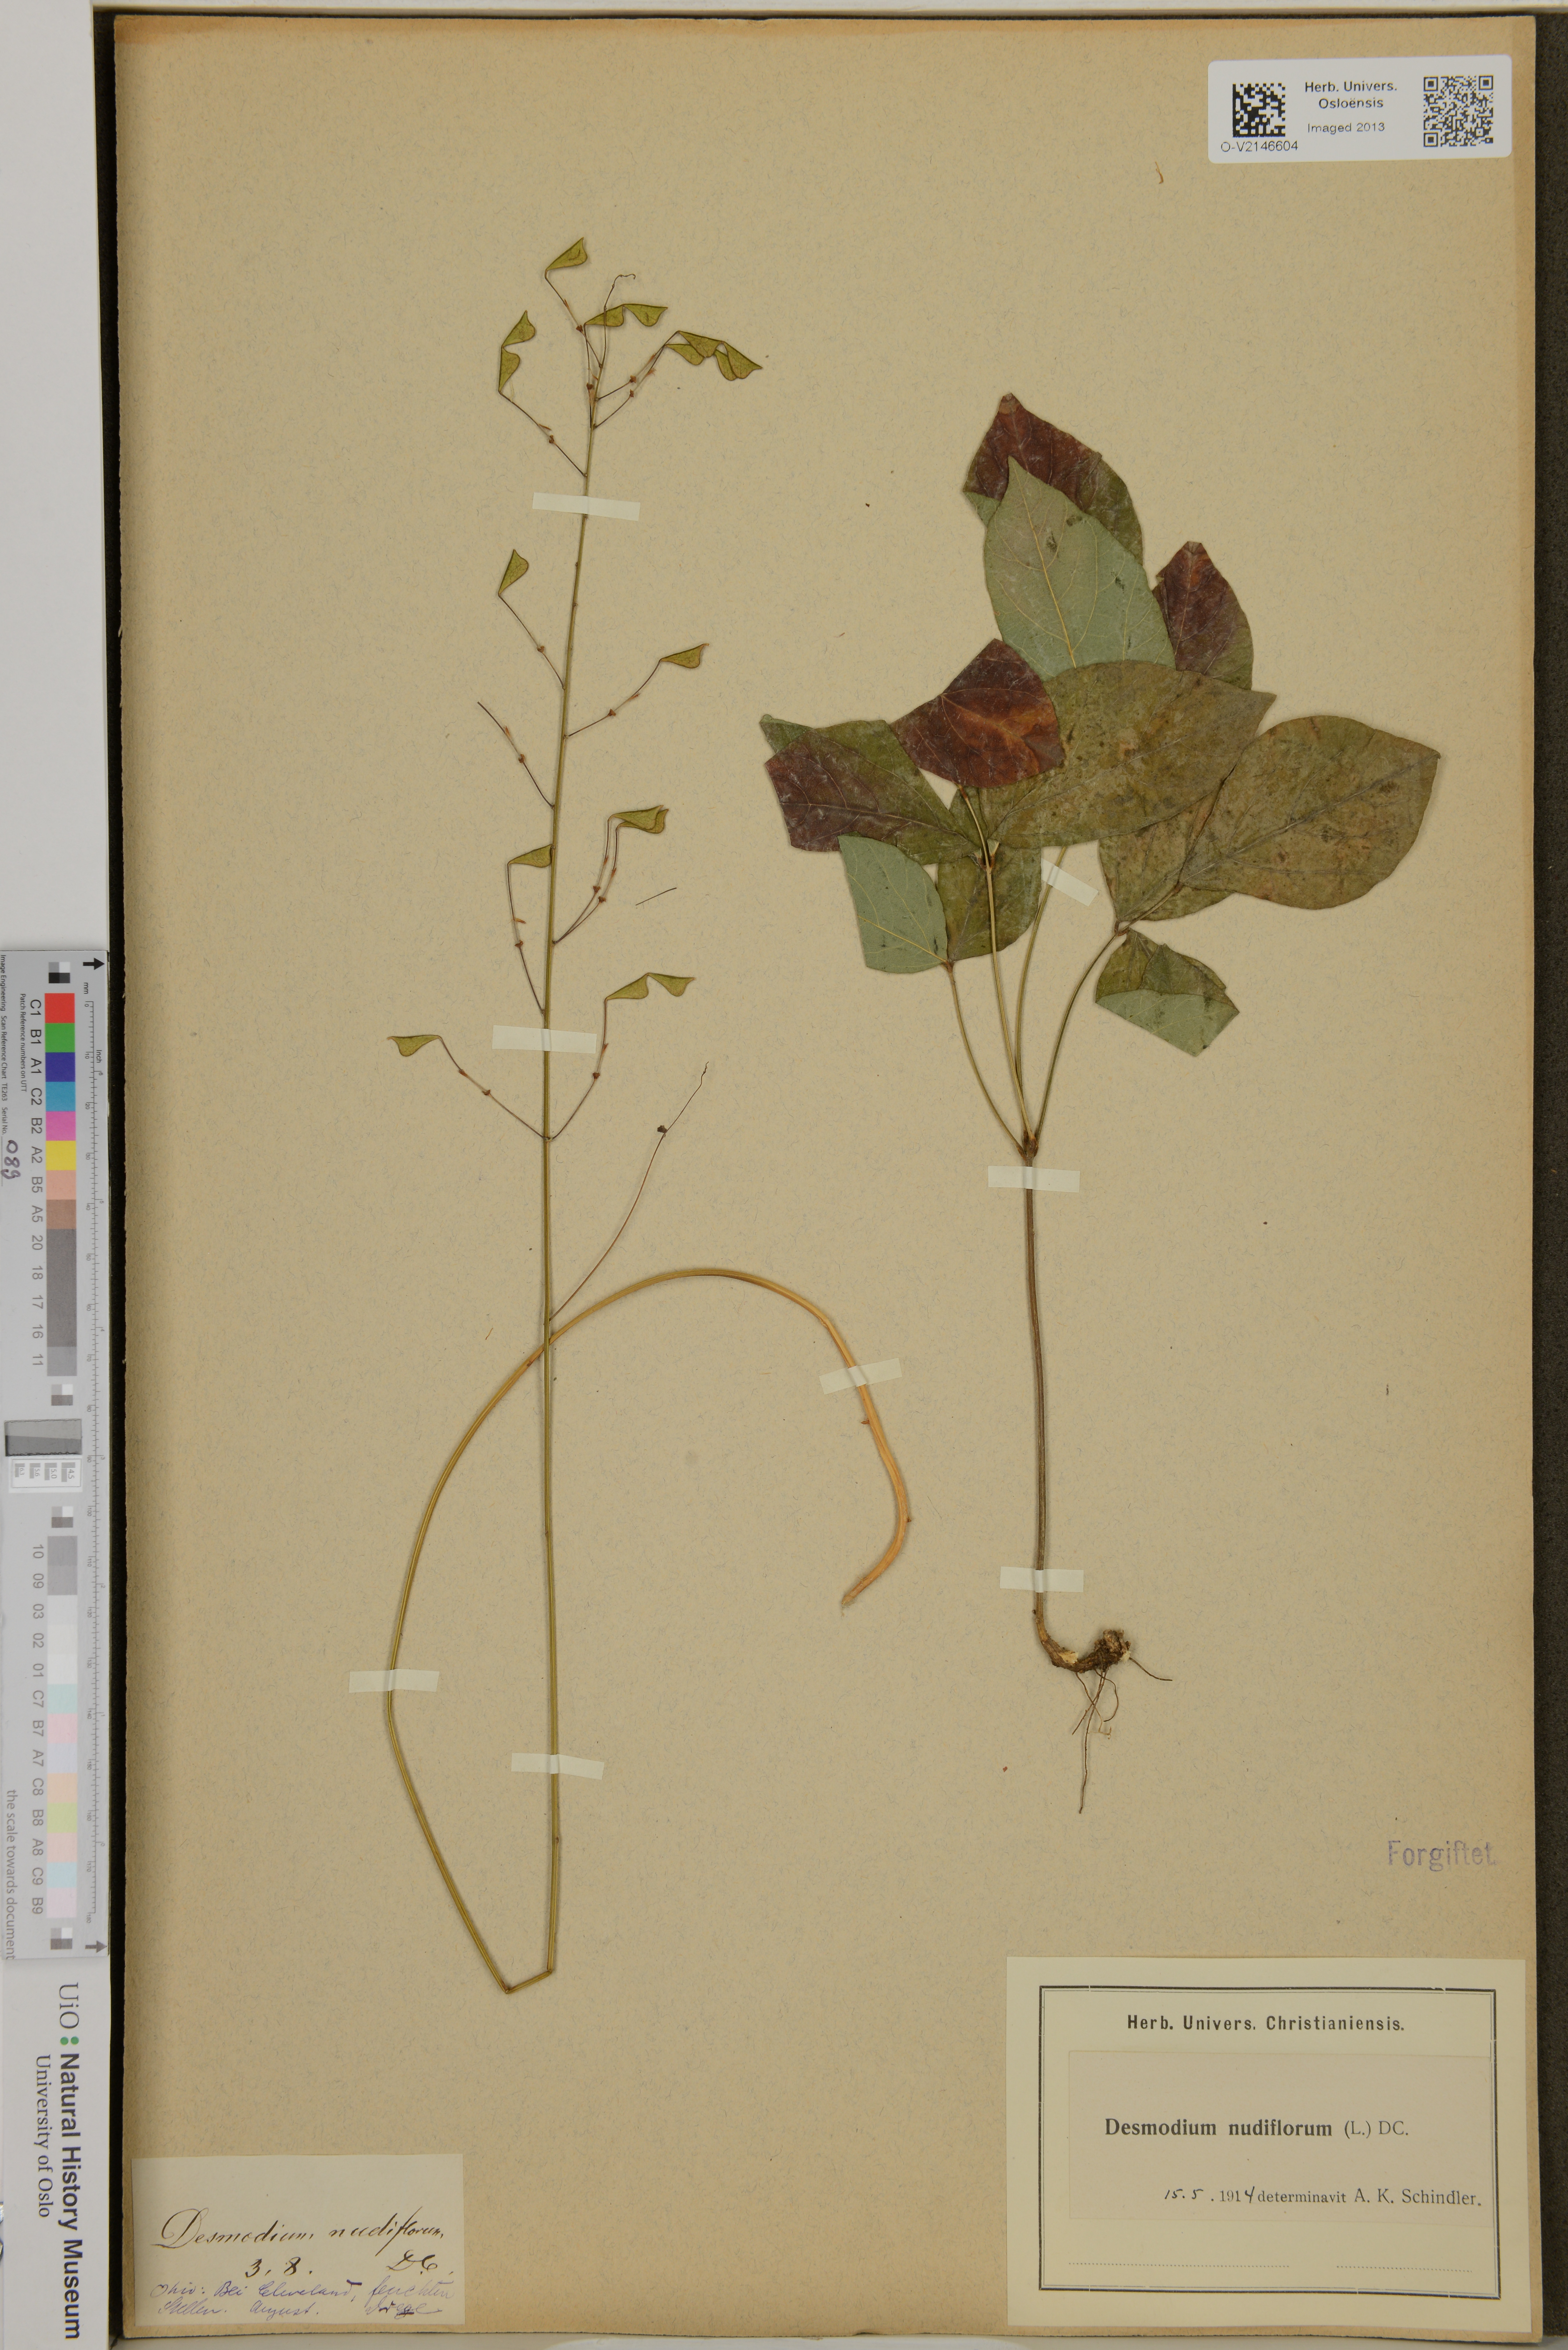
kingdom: Plantae
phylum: Tracheophyta
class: Magnoliopsida
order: Fabales
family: Fabaceae
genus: Hylodesmum
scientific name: Hylodesmum nudiflorum
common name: Bare-stemmed tick-trefoil
